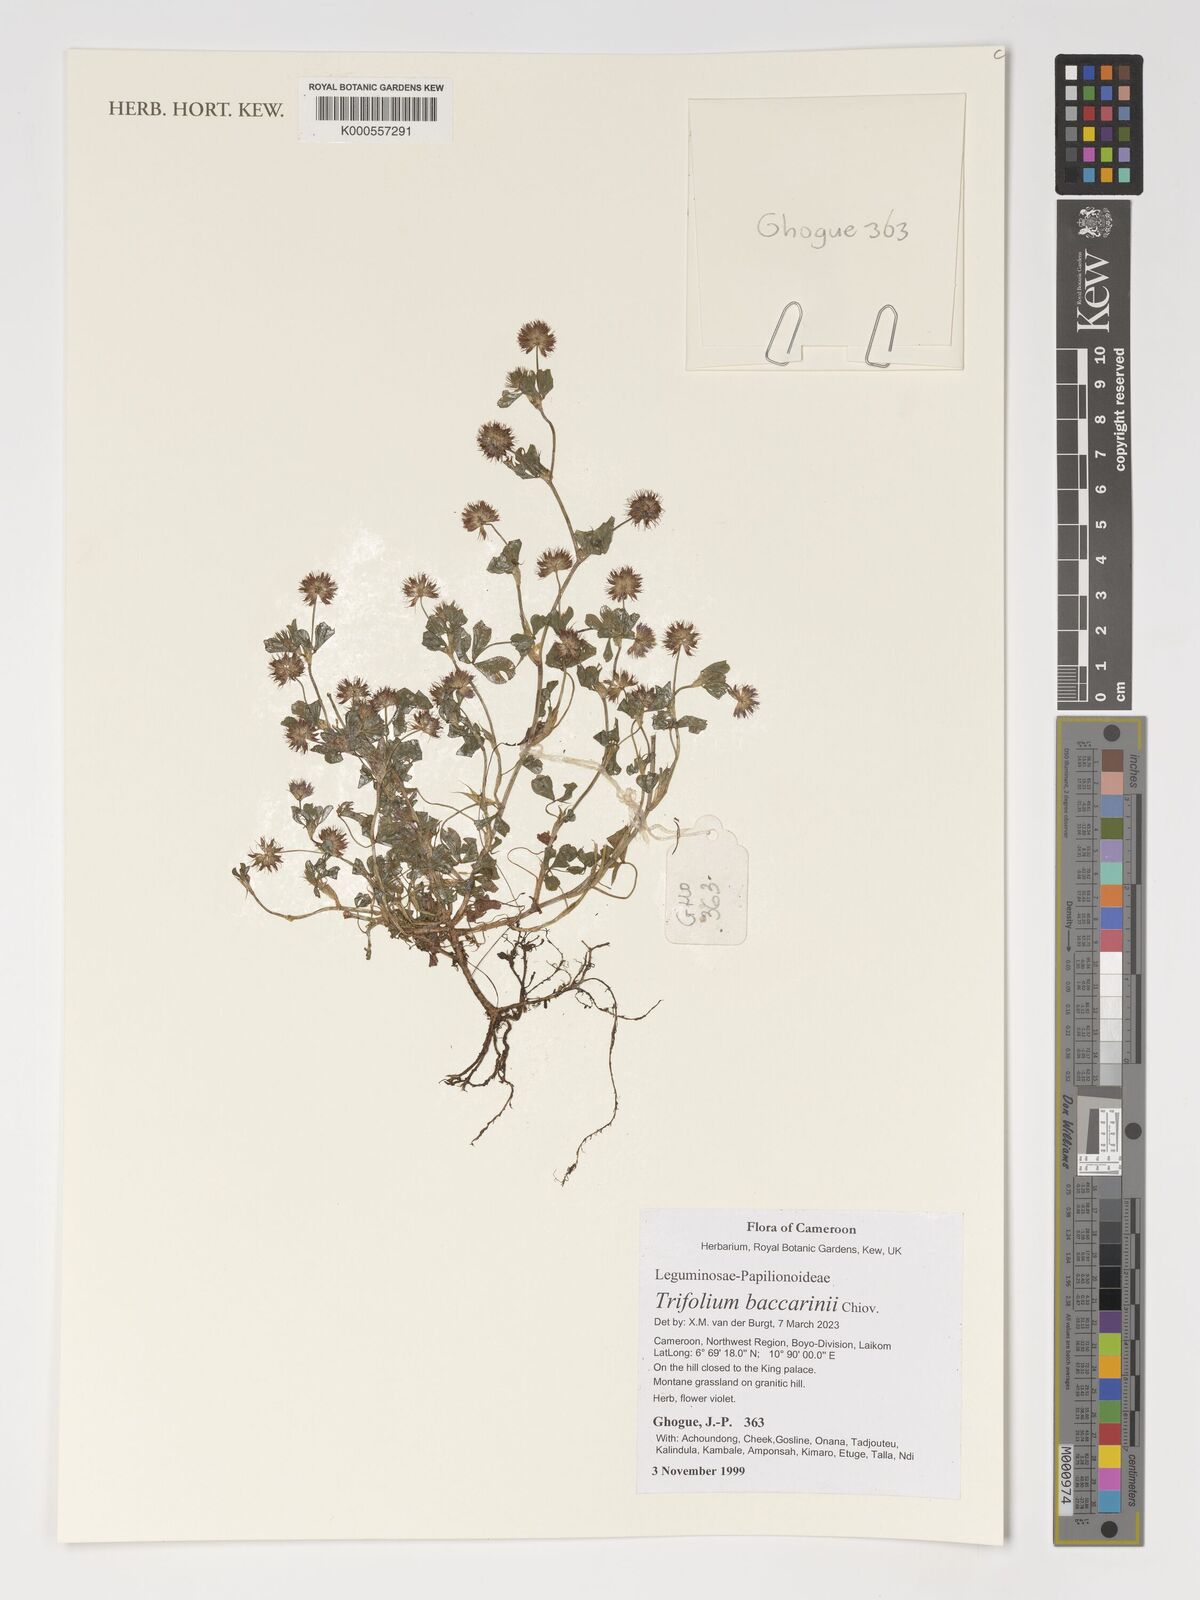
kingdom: Plantae
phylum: Tracheophyta
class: Magnoliopsida
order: Fabales
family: Fabaceae
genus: Trifolium
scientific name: Trifolium baccarinii
